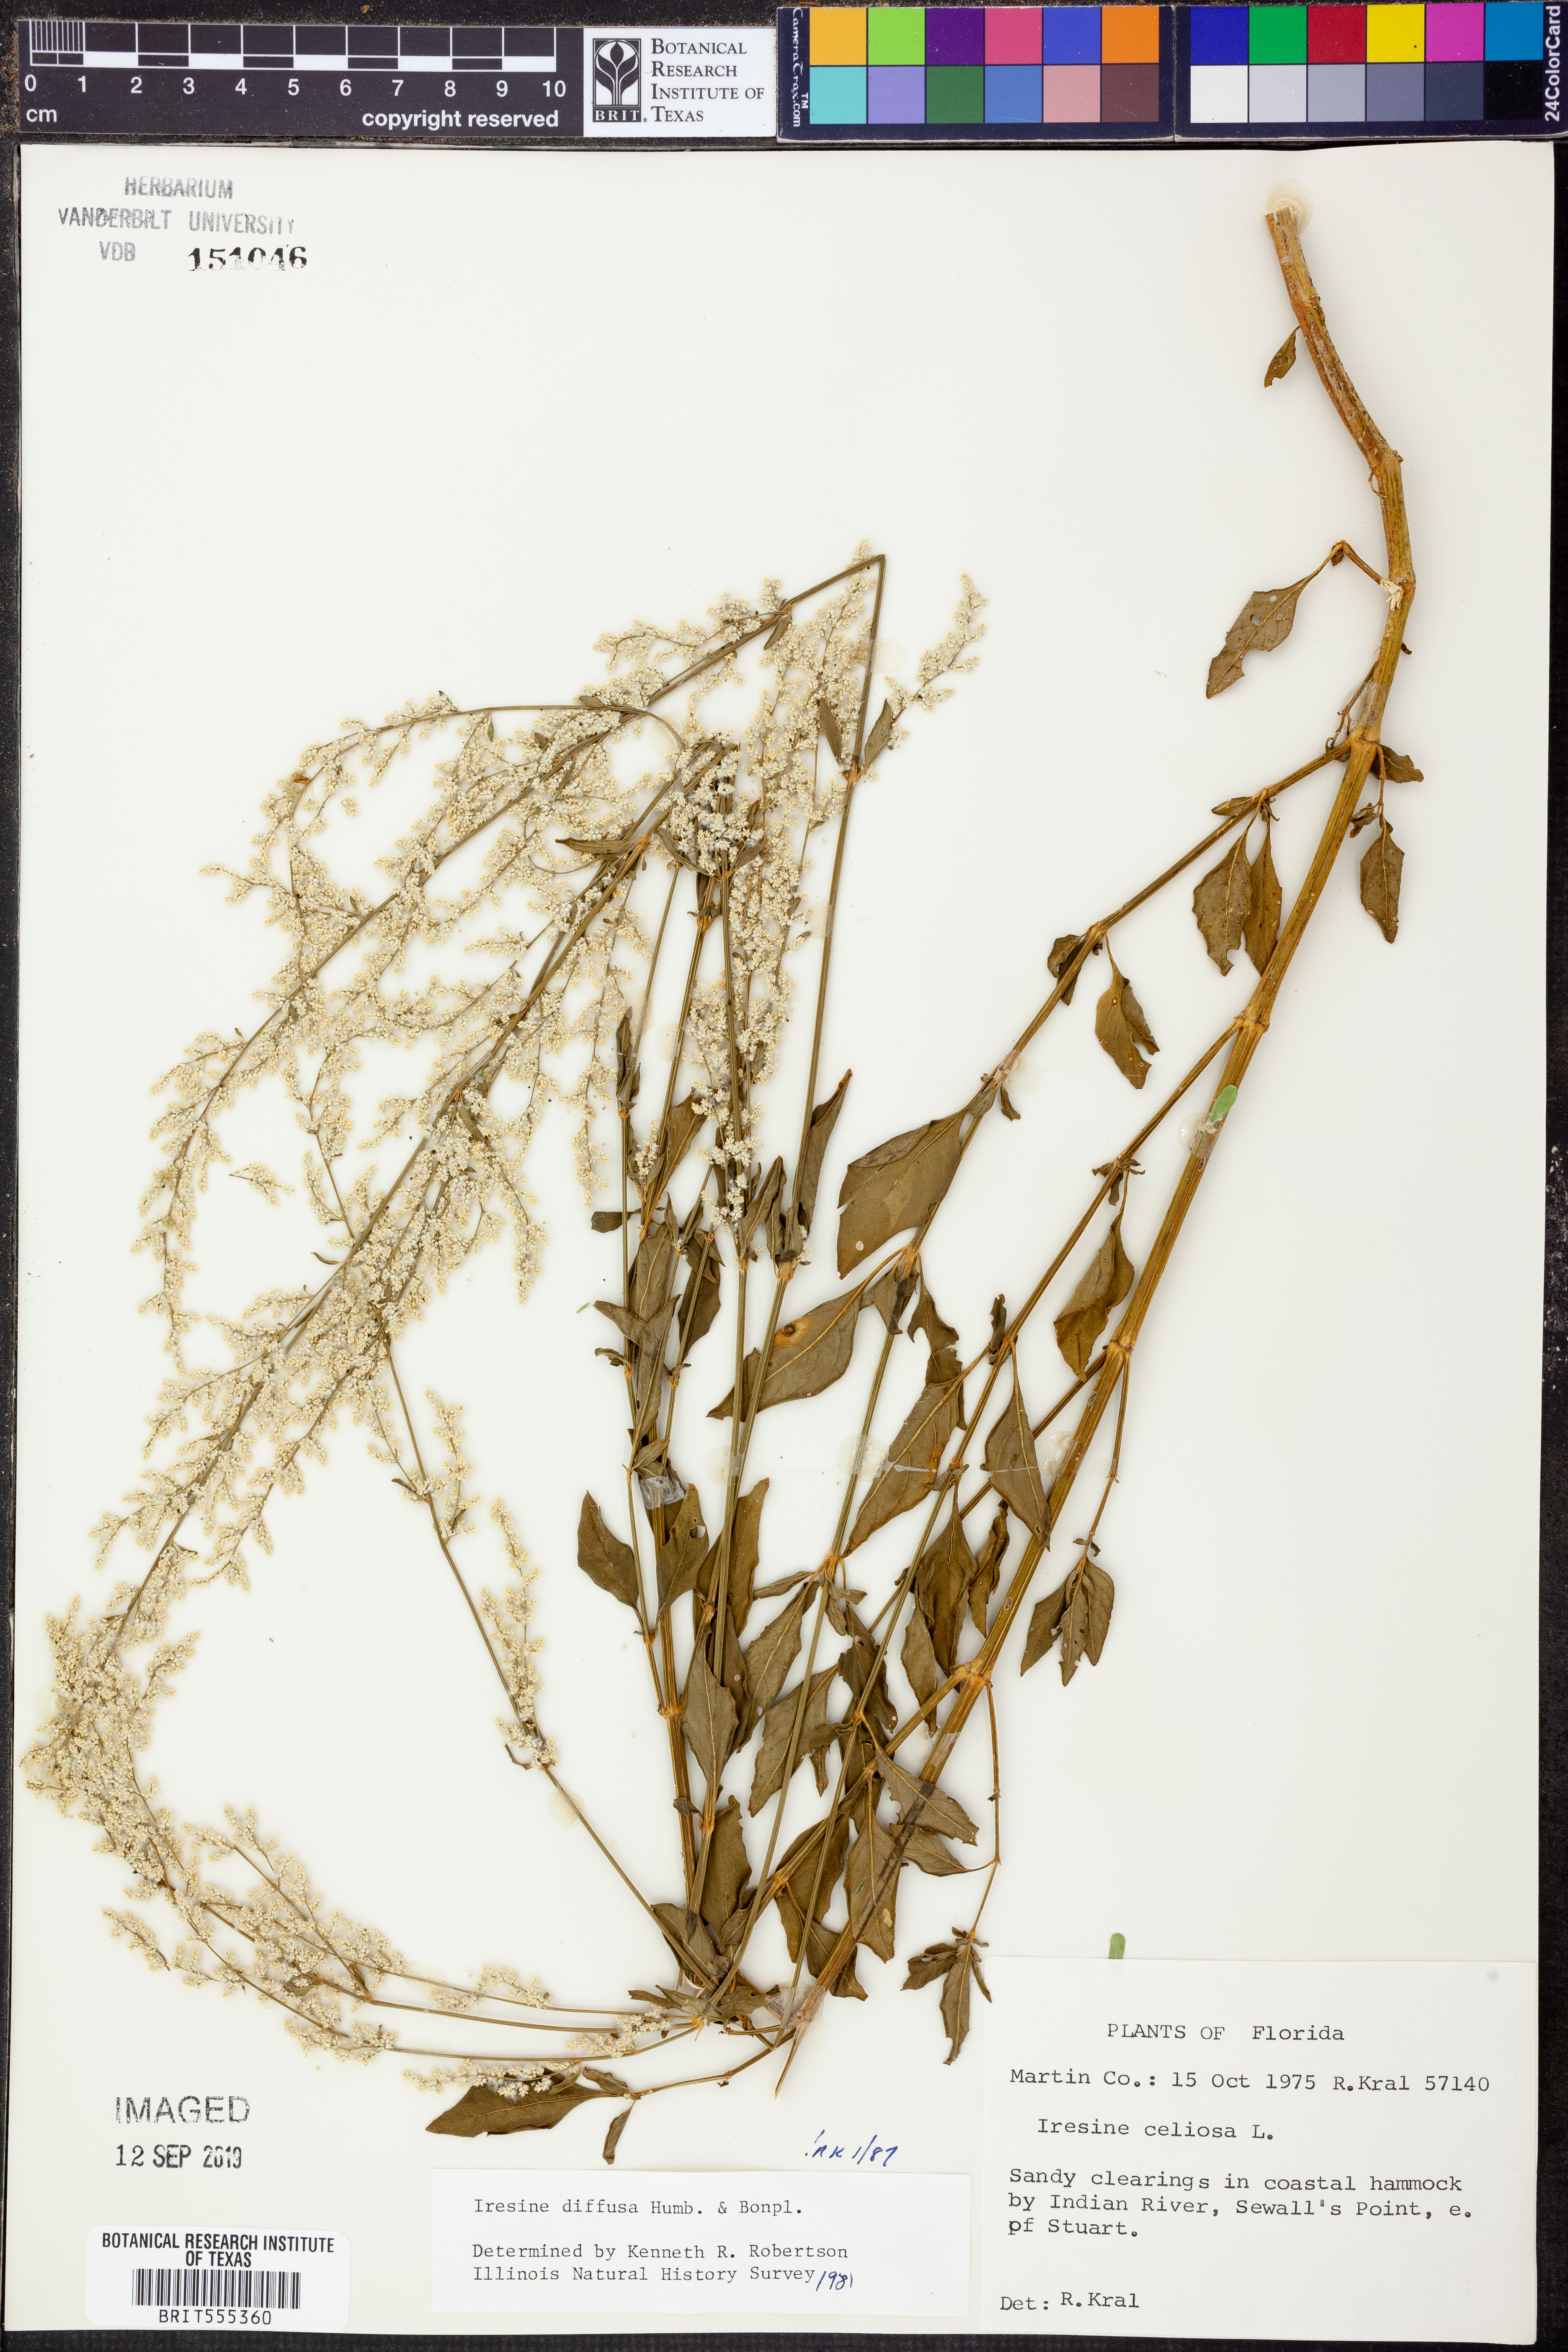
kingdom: Plantae
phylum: Tracheophyta
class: Magnoliopsida
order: Caryophyllales
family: Amaranthaceae
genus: Iresine
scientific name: Iresine diffusa
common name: Juba's-bush
